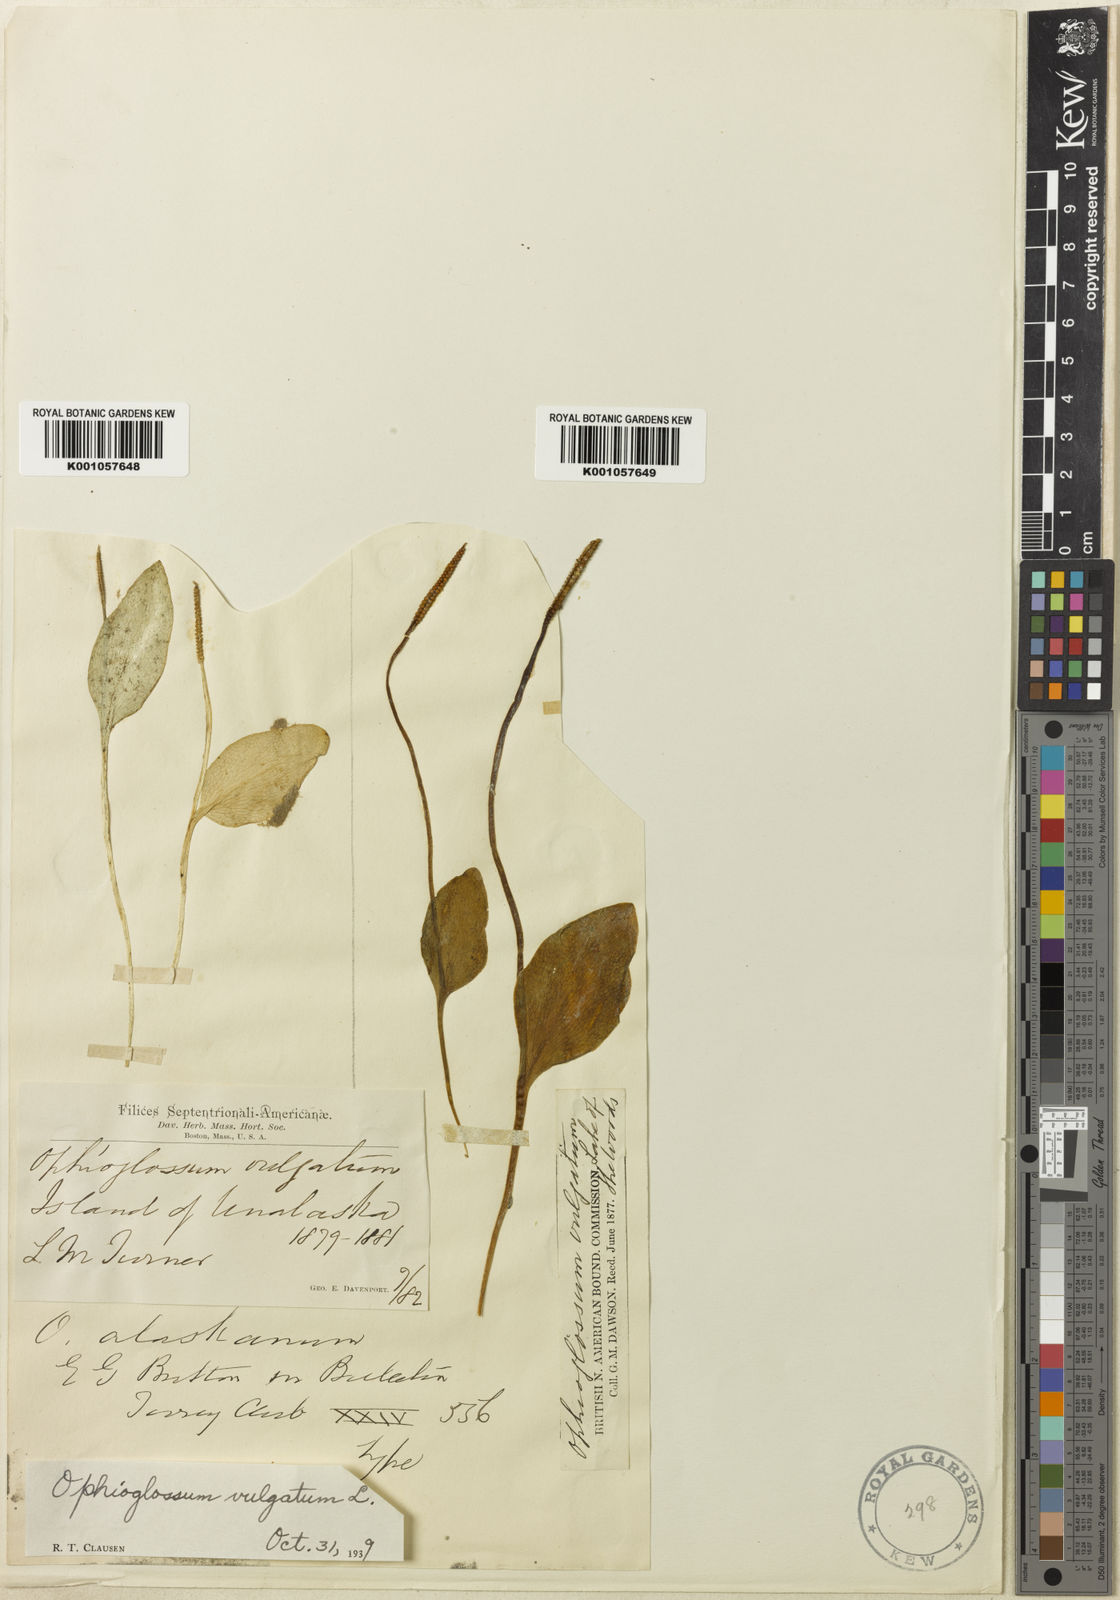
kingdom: Plantae
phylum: Tracheophyta
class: Polypodiopsida
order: Ophioglossales
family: Ophioglossaceae
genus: Ophioglossum
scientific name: Ophioglossum vulgatum
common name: Adder's-tongue
